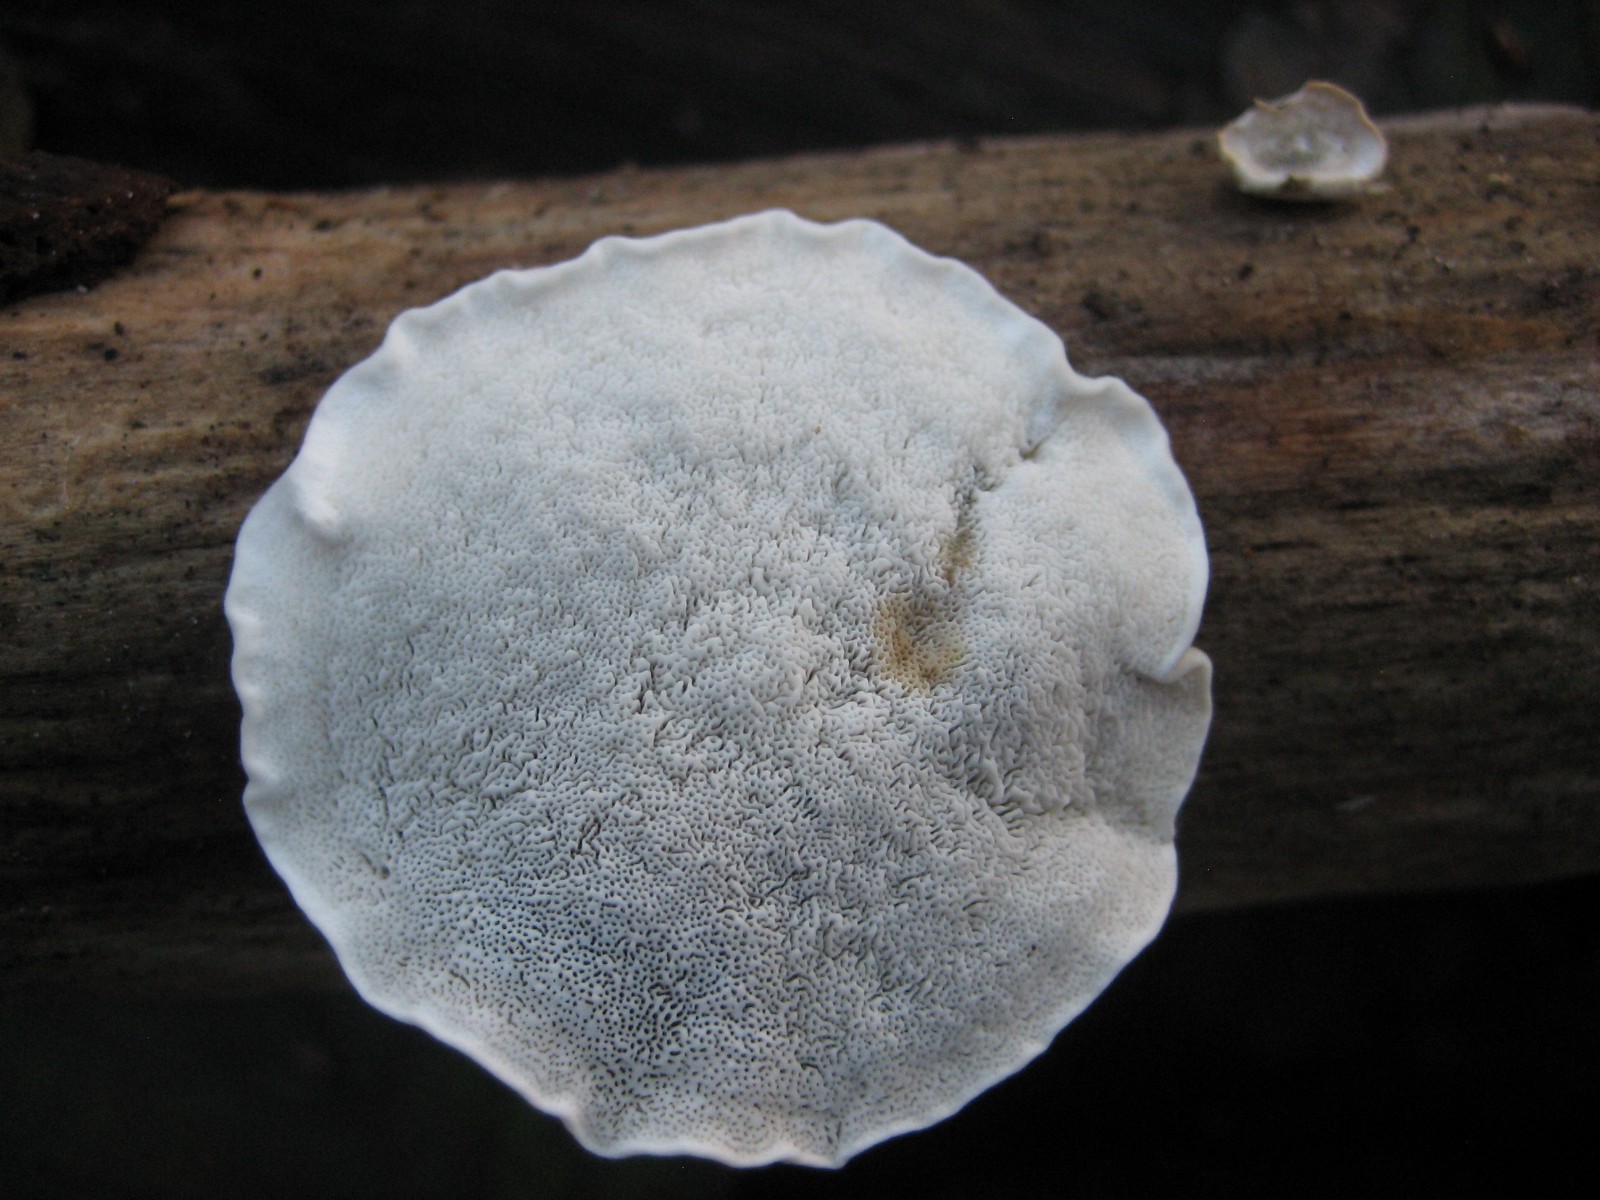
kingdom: Fungi
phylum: Basidiomycota
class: Agaricomycetes
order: Polyporales
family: Polyporaceae
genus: Cyanosporus
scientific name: Cyanosporus alni
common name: blegblå kødporesvamp
